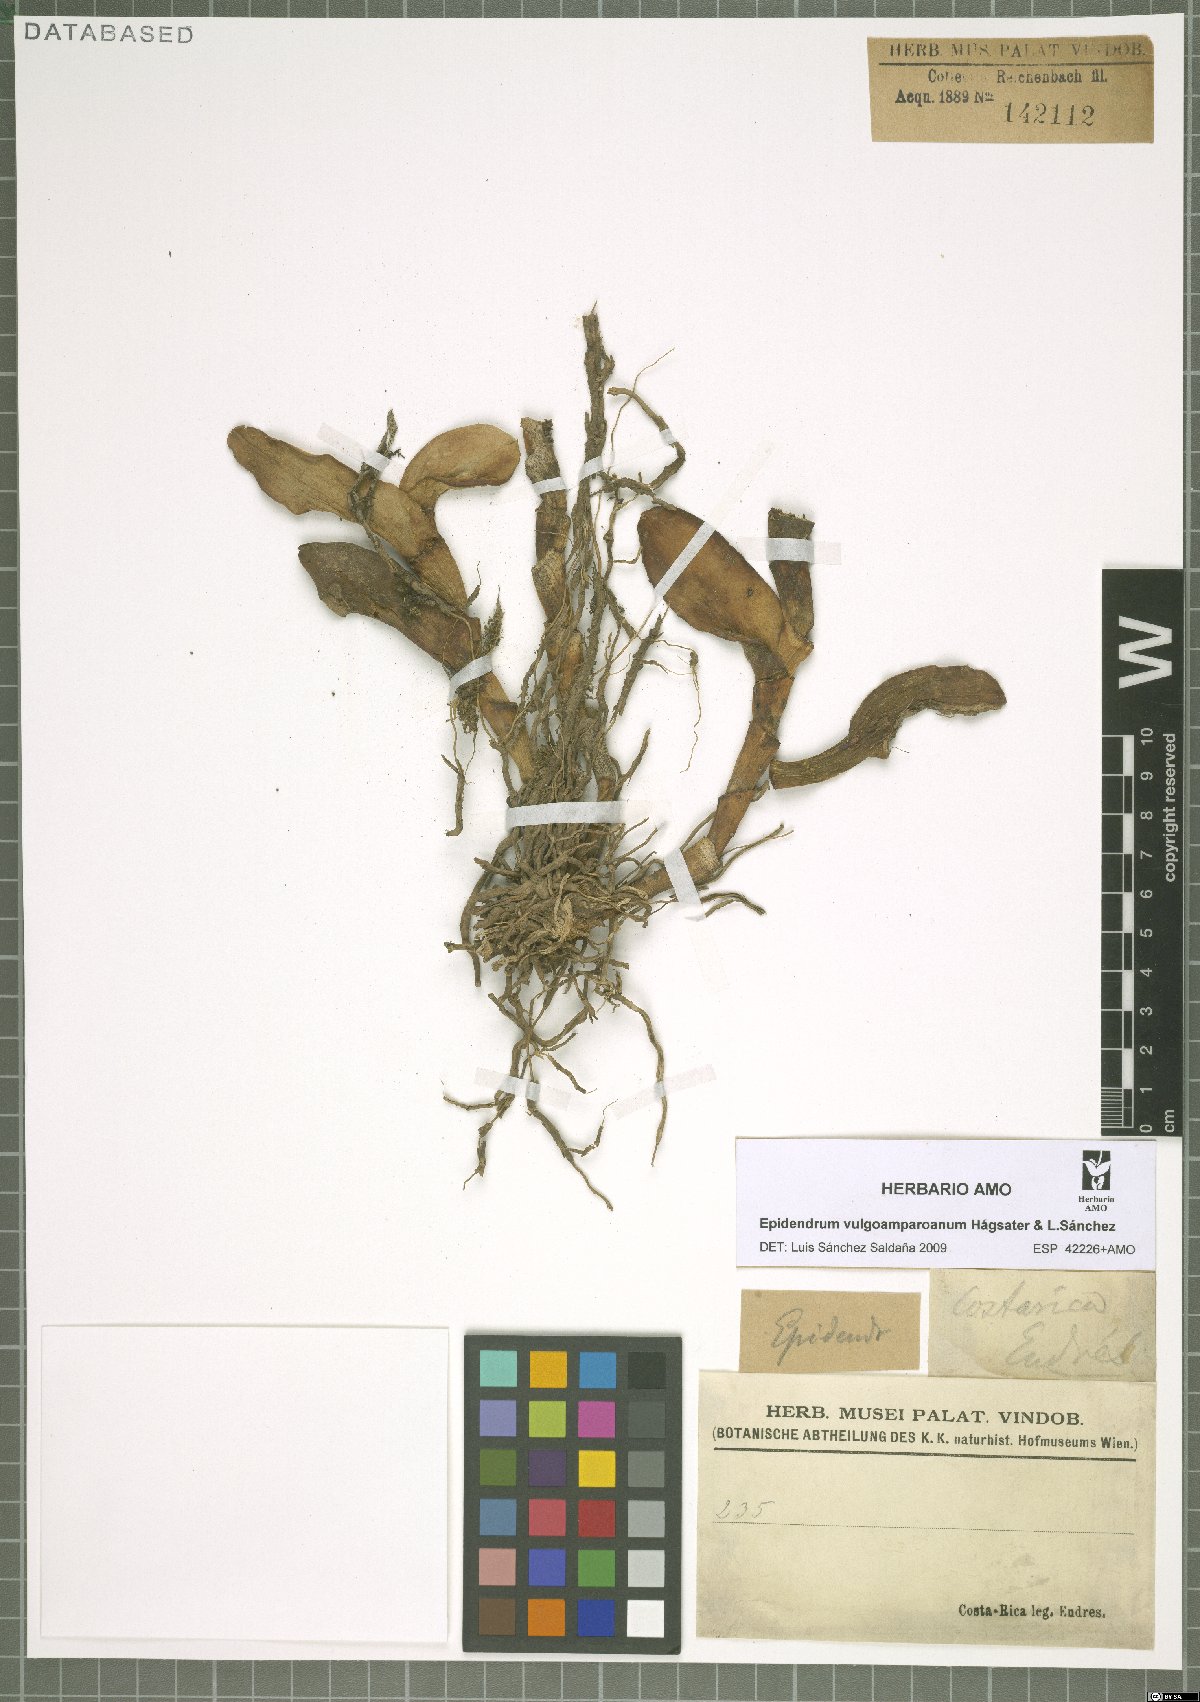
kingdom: Plantae
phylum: Tracheophyta
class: Liliopsida
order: Asparagales
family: Orchidaceae
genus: Epidendrum
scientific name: Epidendrum vulgoamparoanum
